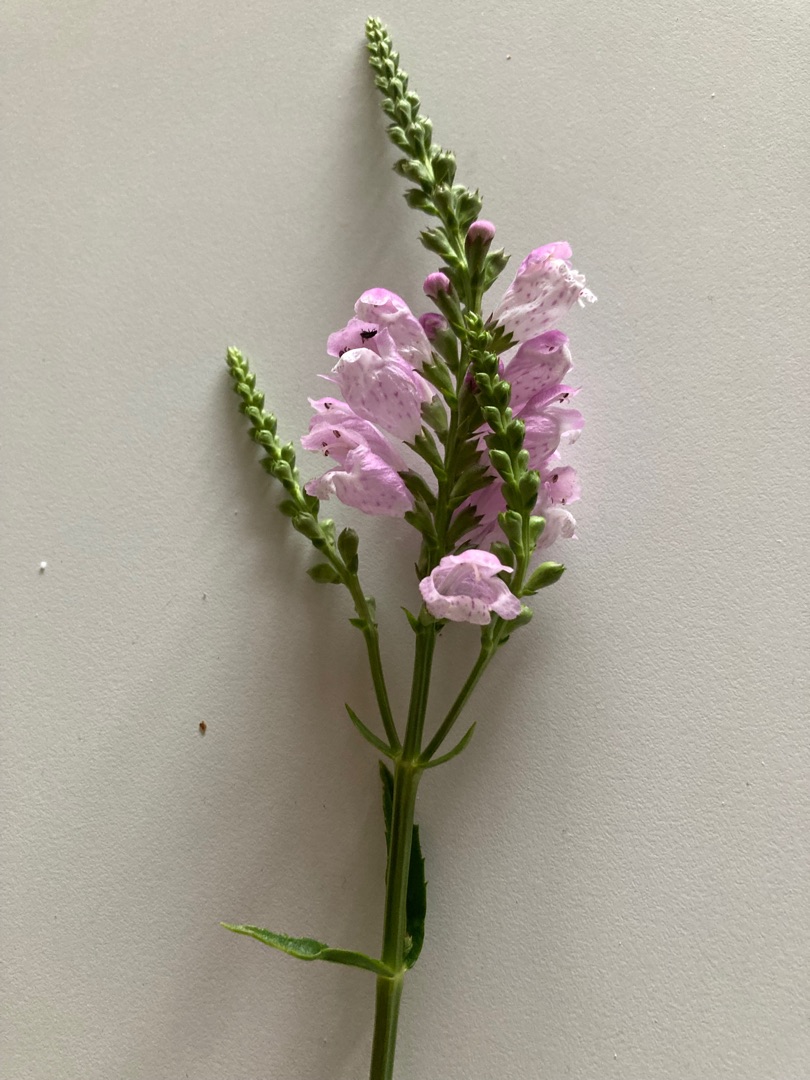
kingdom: Plantae
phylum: Tracheophyta
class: Magnoliopsida
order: Lamiales
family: Lamiaceae
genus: Physostegia
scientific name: Physostegia virginiana
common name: Drejeblomst
